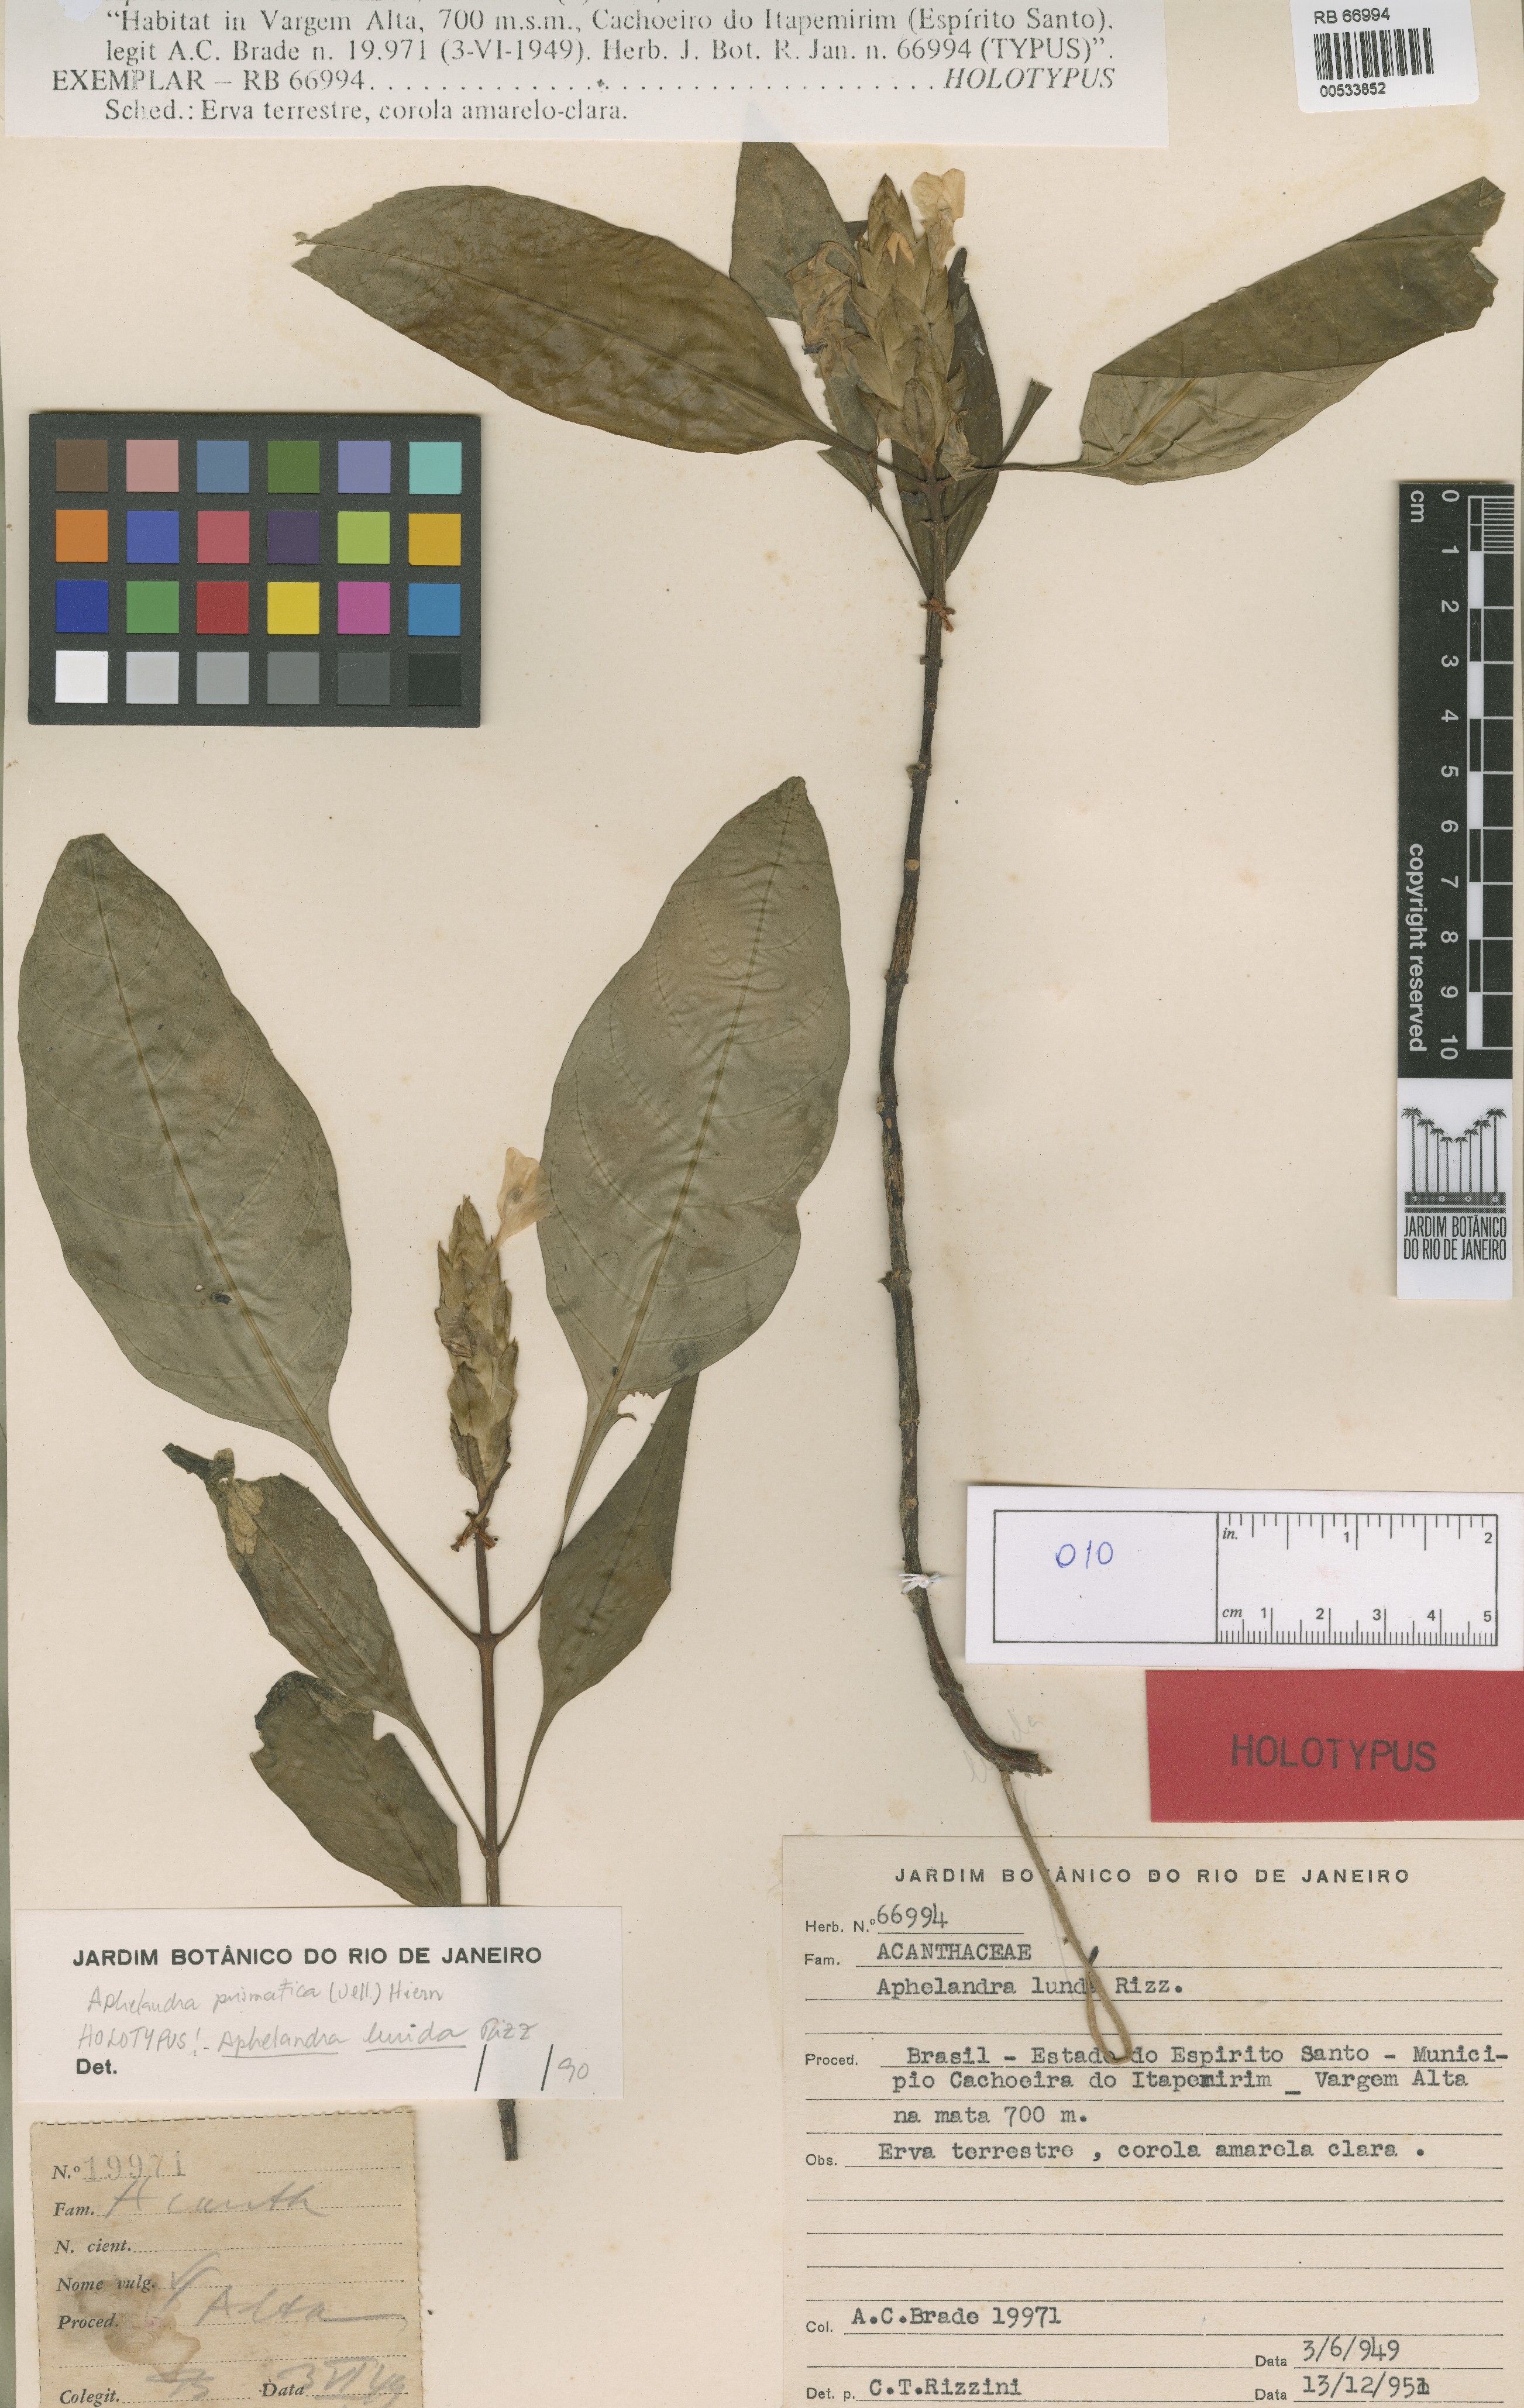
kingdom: Plantae
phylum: Tracheophyta
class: Magnoliopsida
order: Lamiales
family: Acanthaceae
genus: Aphelandra
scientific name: Aphelandra prismatica
